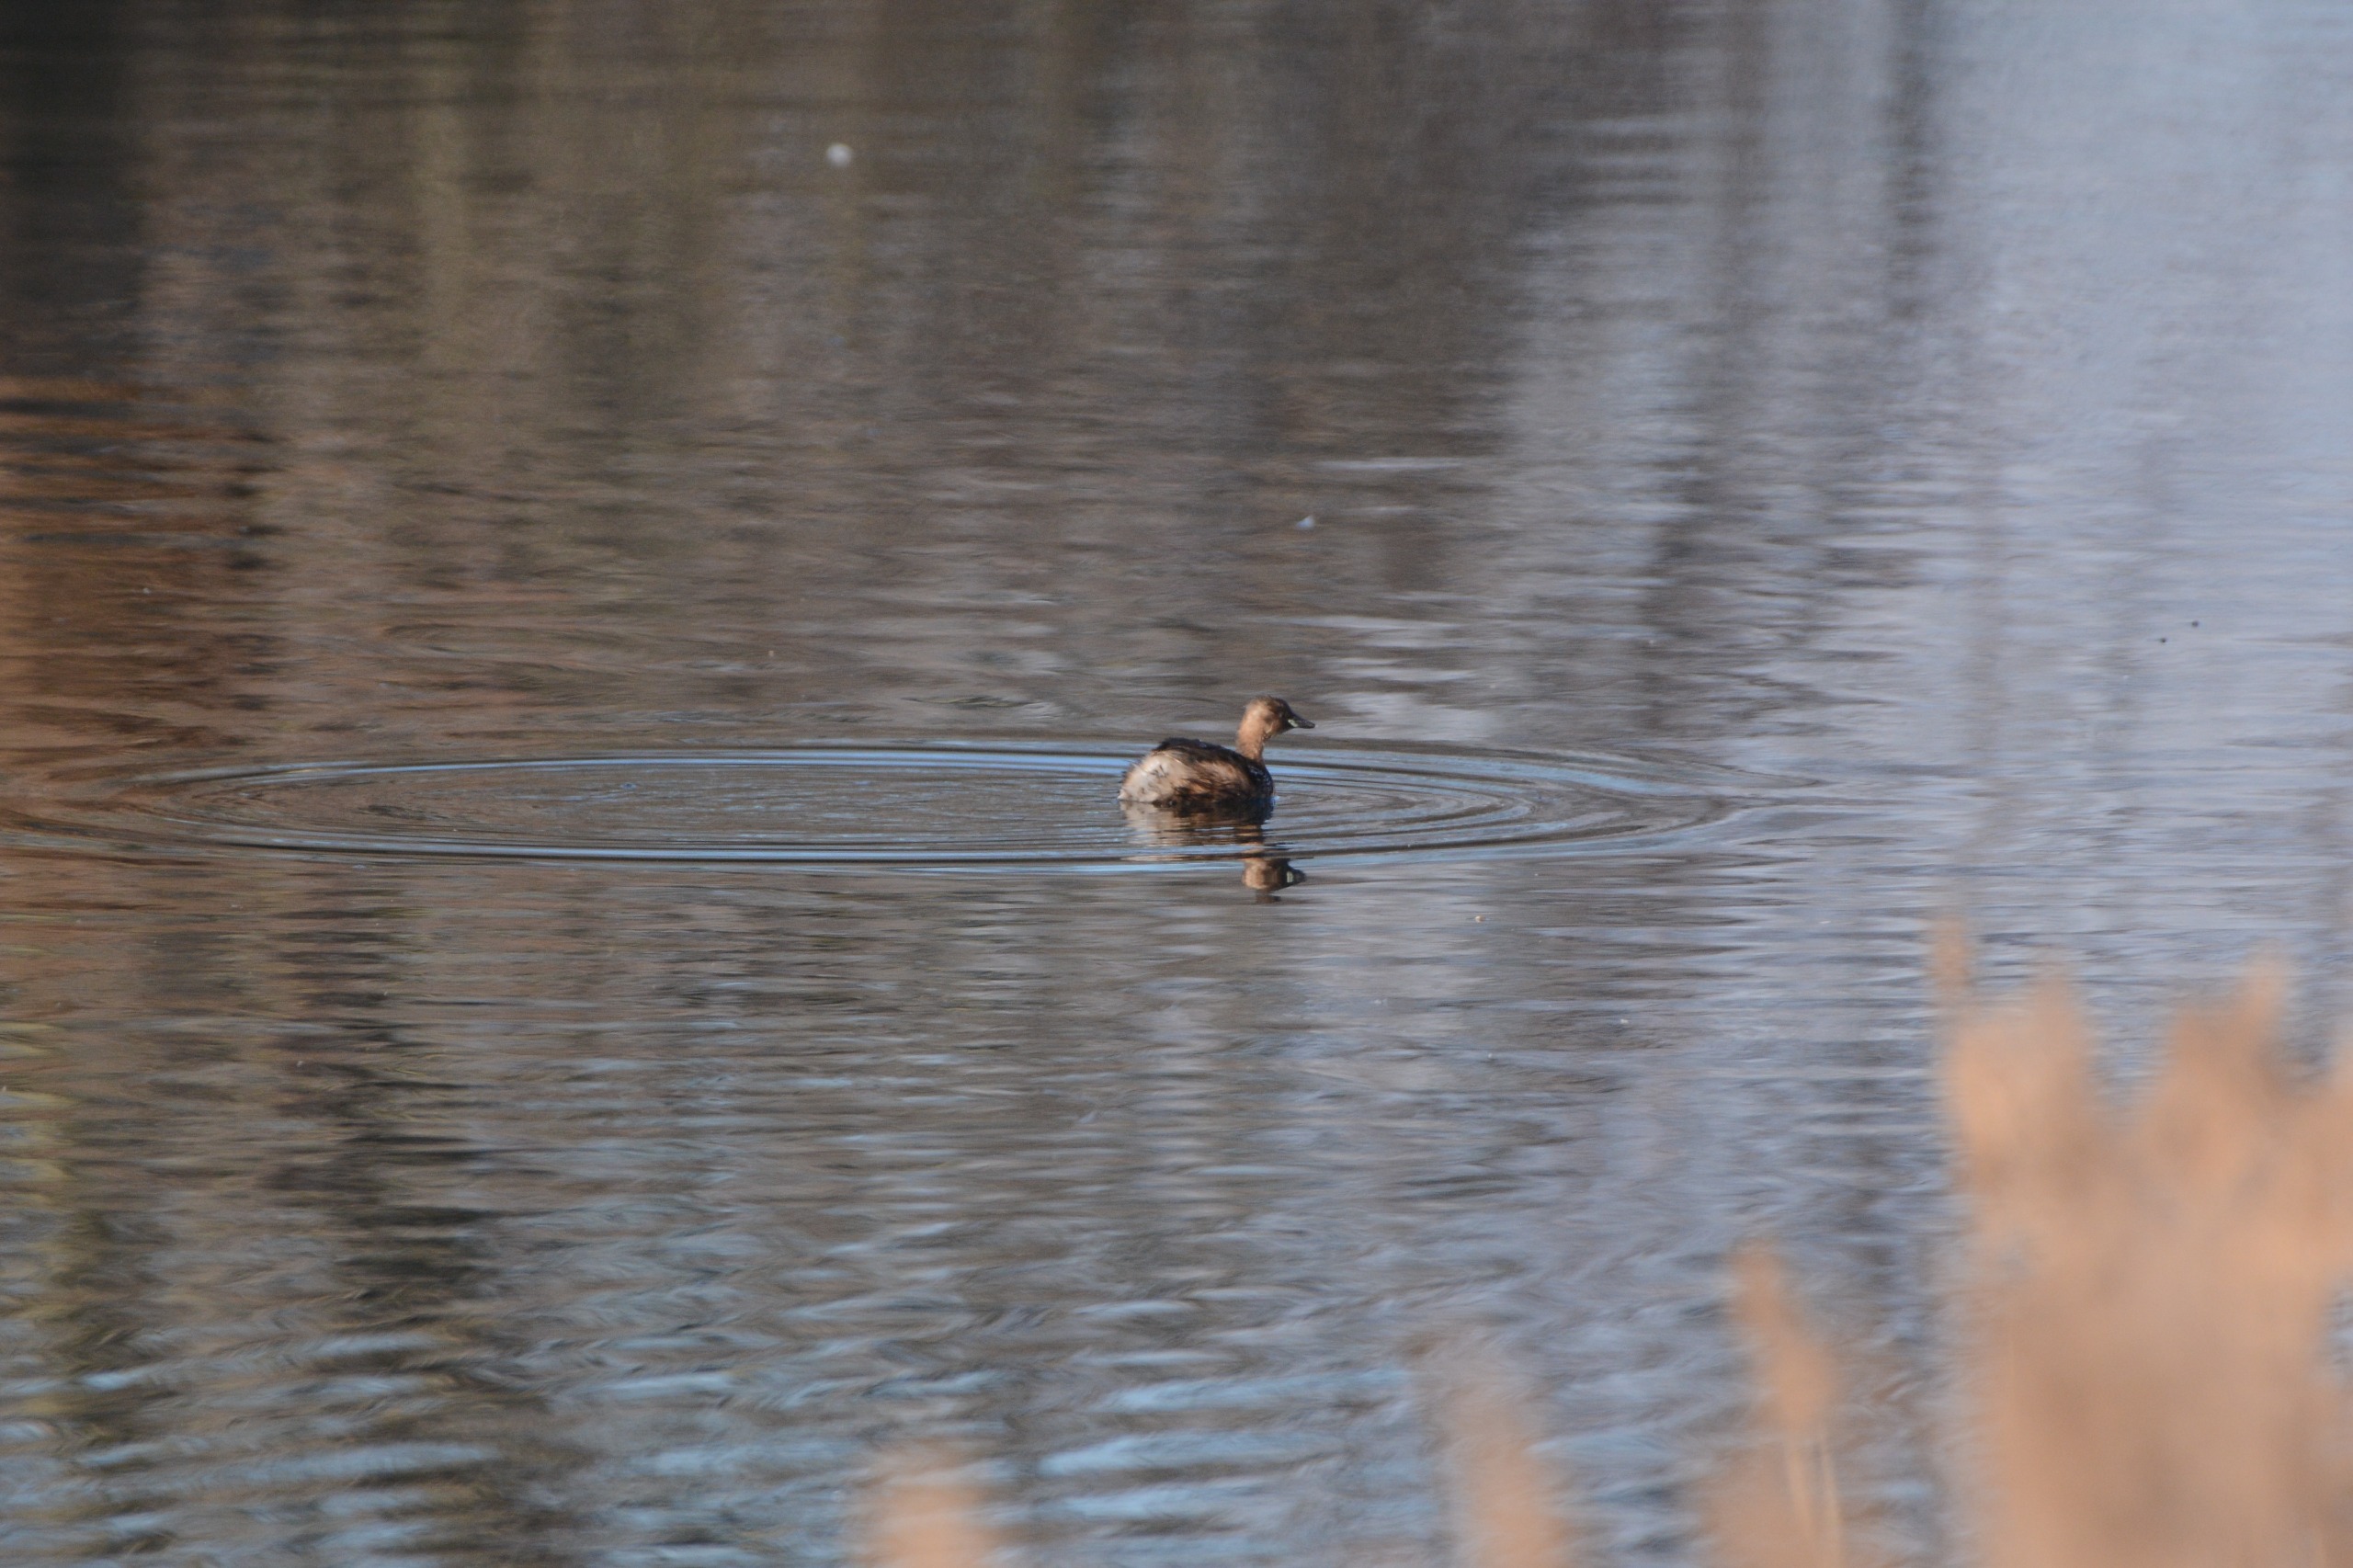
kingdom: Animalia
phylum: Chordata
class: Aves
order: Podicipediformes
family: Podicipedidae
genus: Tachybaptus
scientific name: Tachybaptus ruficollis
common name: Lille lappedykker
